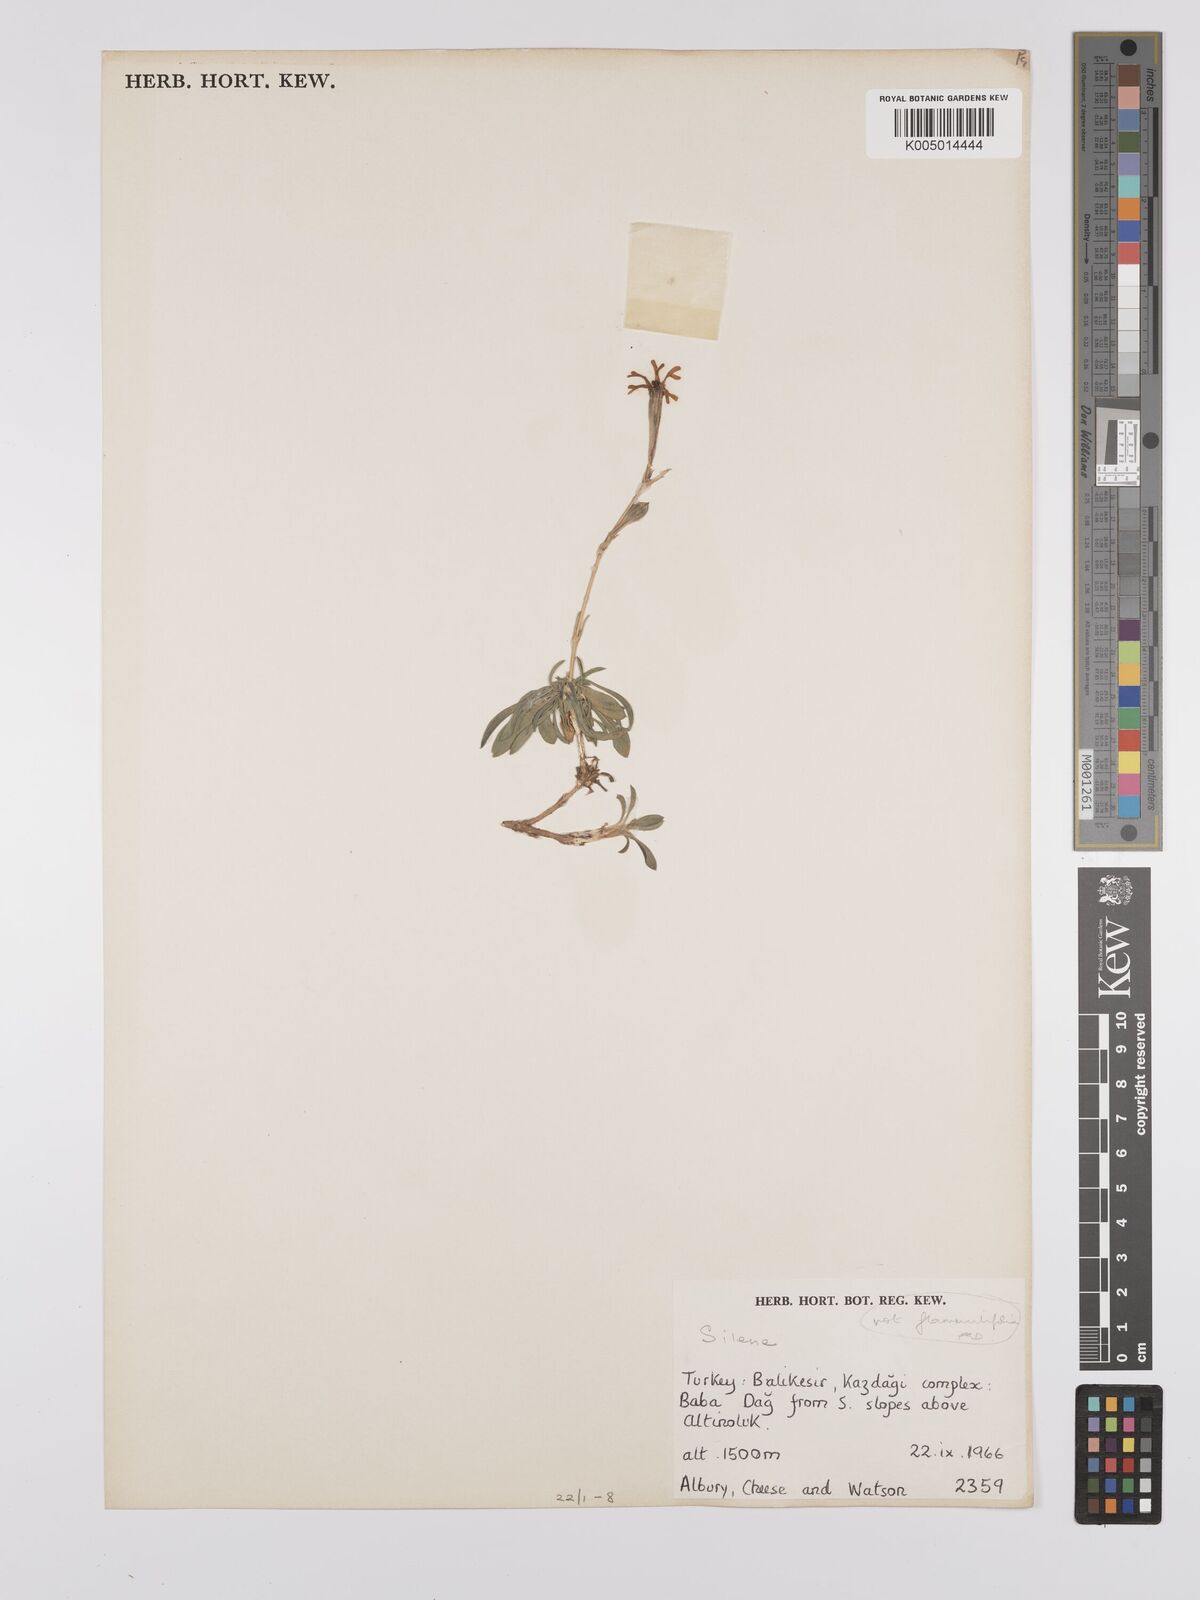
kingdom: Plantae
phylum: Tracheophyta
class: Magnoliopsida
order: Caryophyllales
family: Caryophyllaceae
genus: Silene
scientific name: Silene
